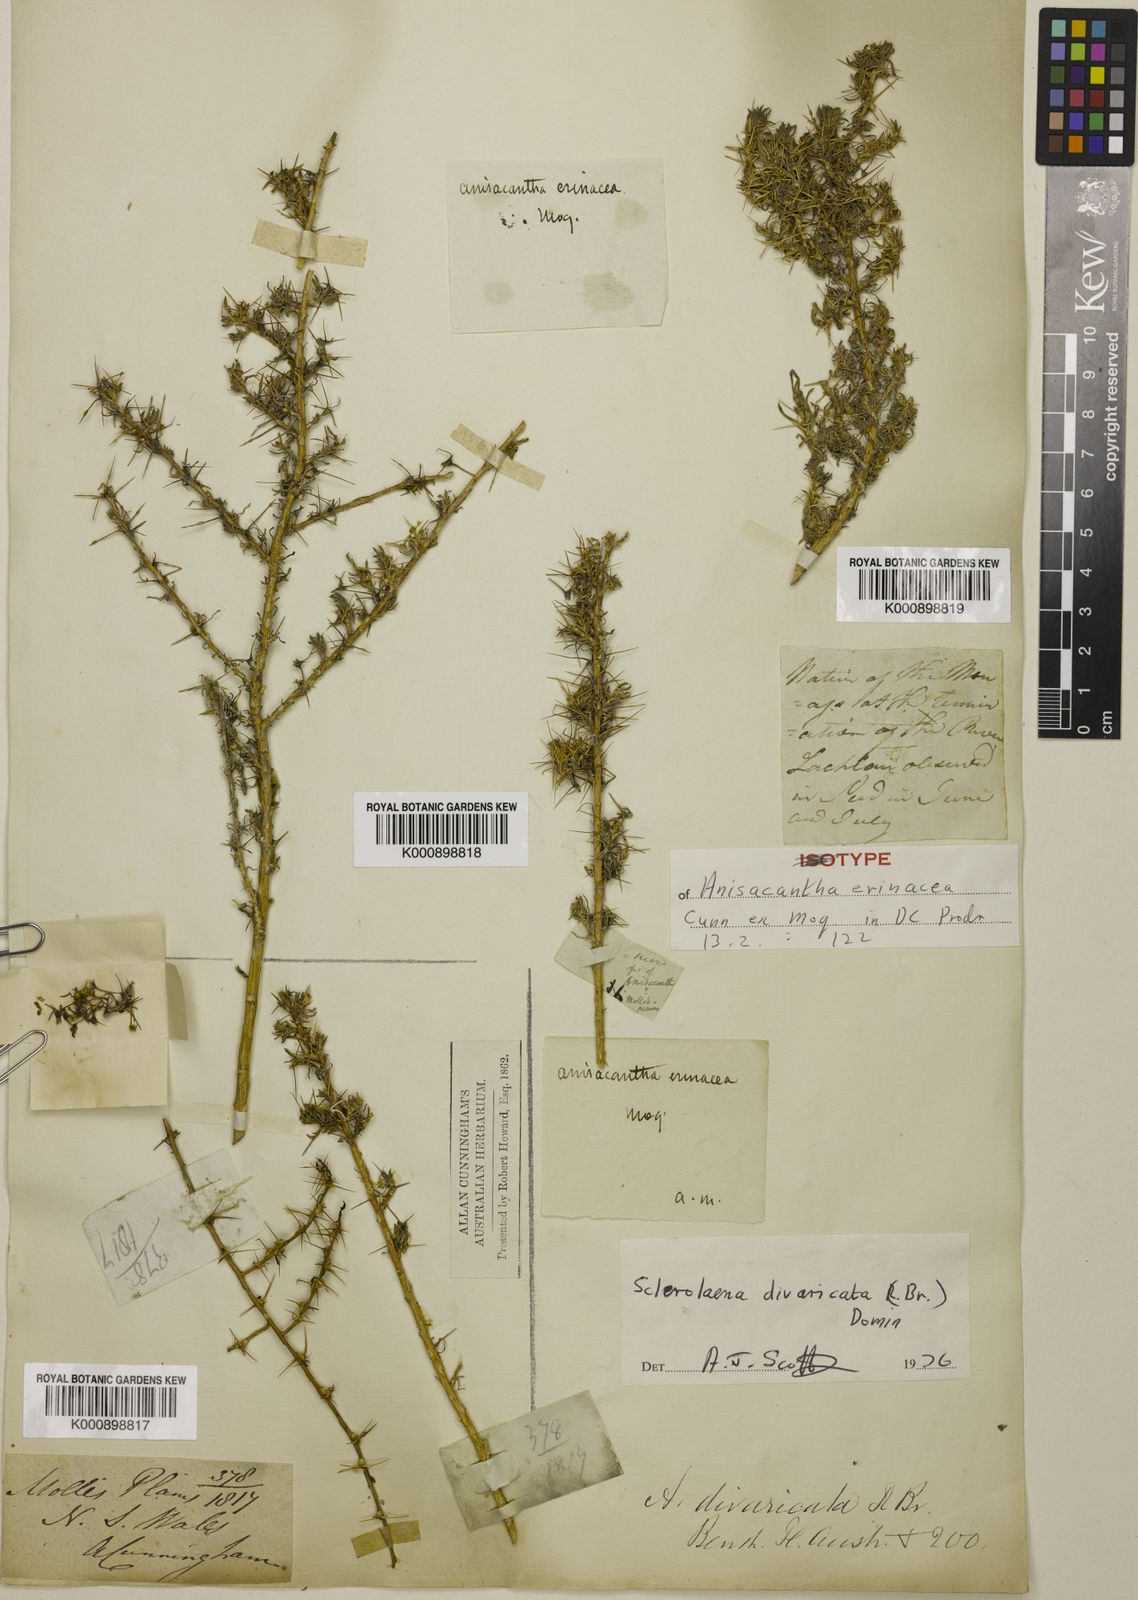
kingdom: Plantae
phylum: Tracheophyta
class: Magnoliopsida
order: Caryophyllales
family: Amaranthaceae
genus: Sclerolaena
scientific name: Sclerolaena divaricata
